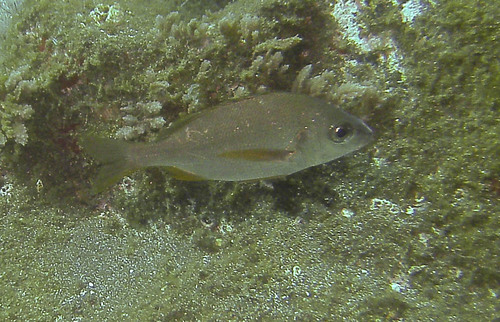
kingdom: Animalia
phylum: Chordata
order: Perciformes
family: Haemulidae
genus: Pomadasys
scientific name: Pomadasys incisus
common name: Bastard grunt
